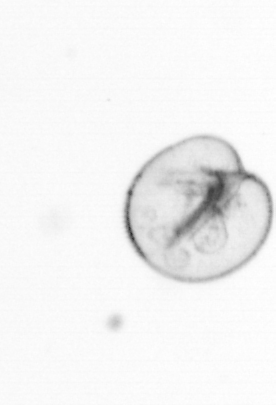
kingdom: Chromista
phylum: Myzozoa
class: Dinophyceae
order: Noctilucales
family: Noctilucaceae
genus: Noctiluca
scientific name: Noctiluca scintillans
